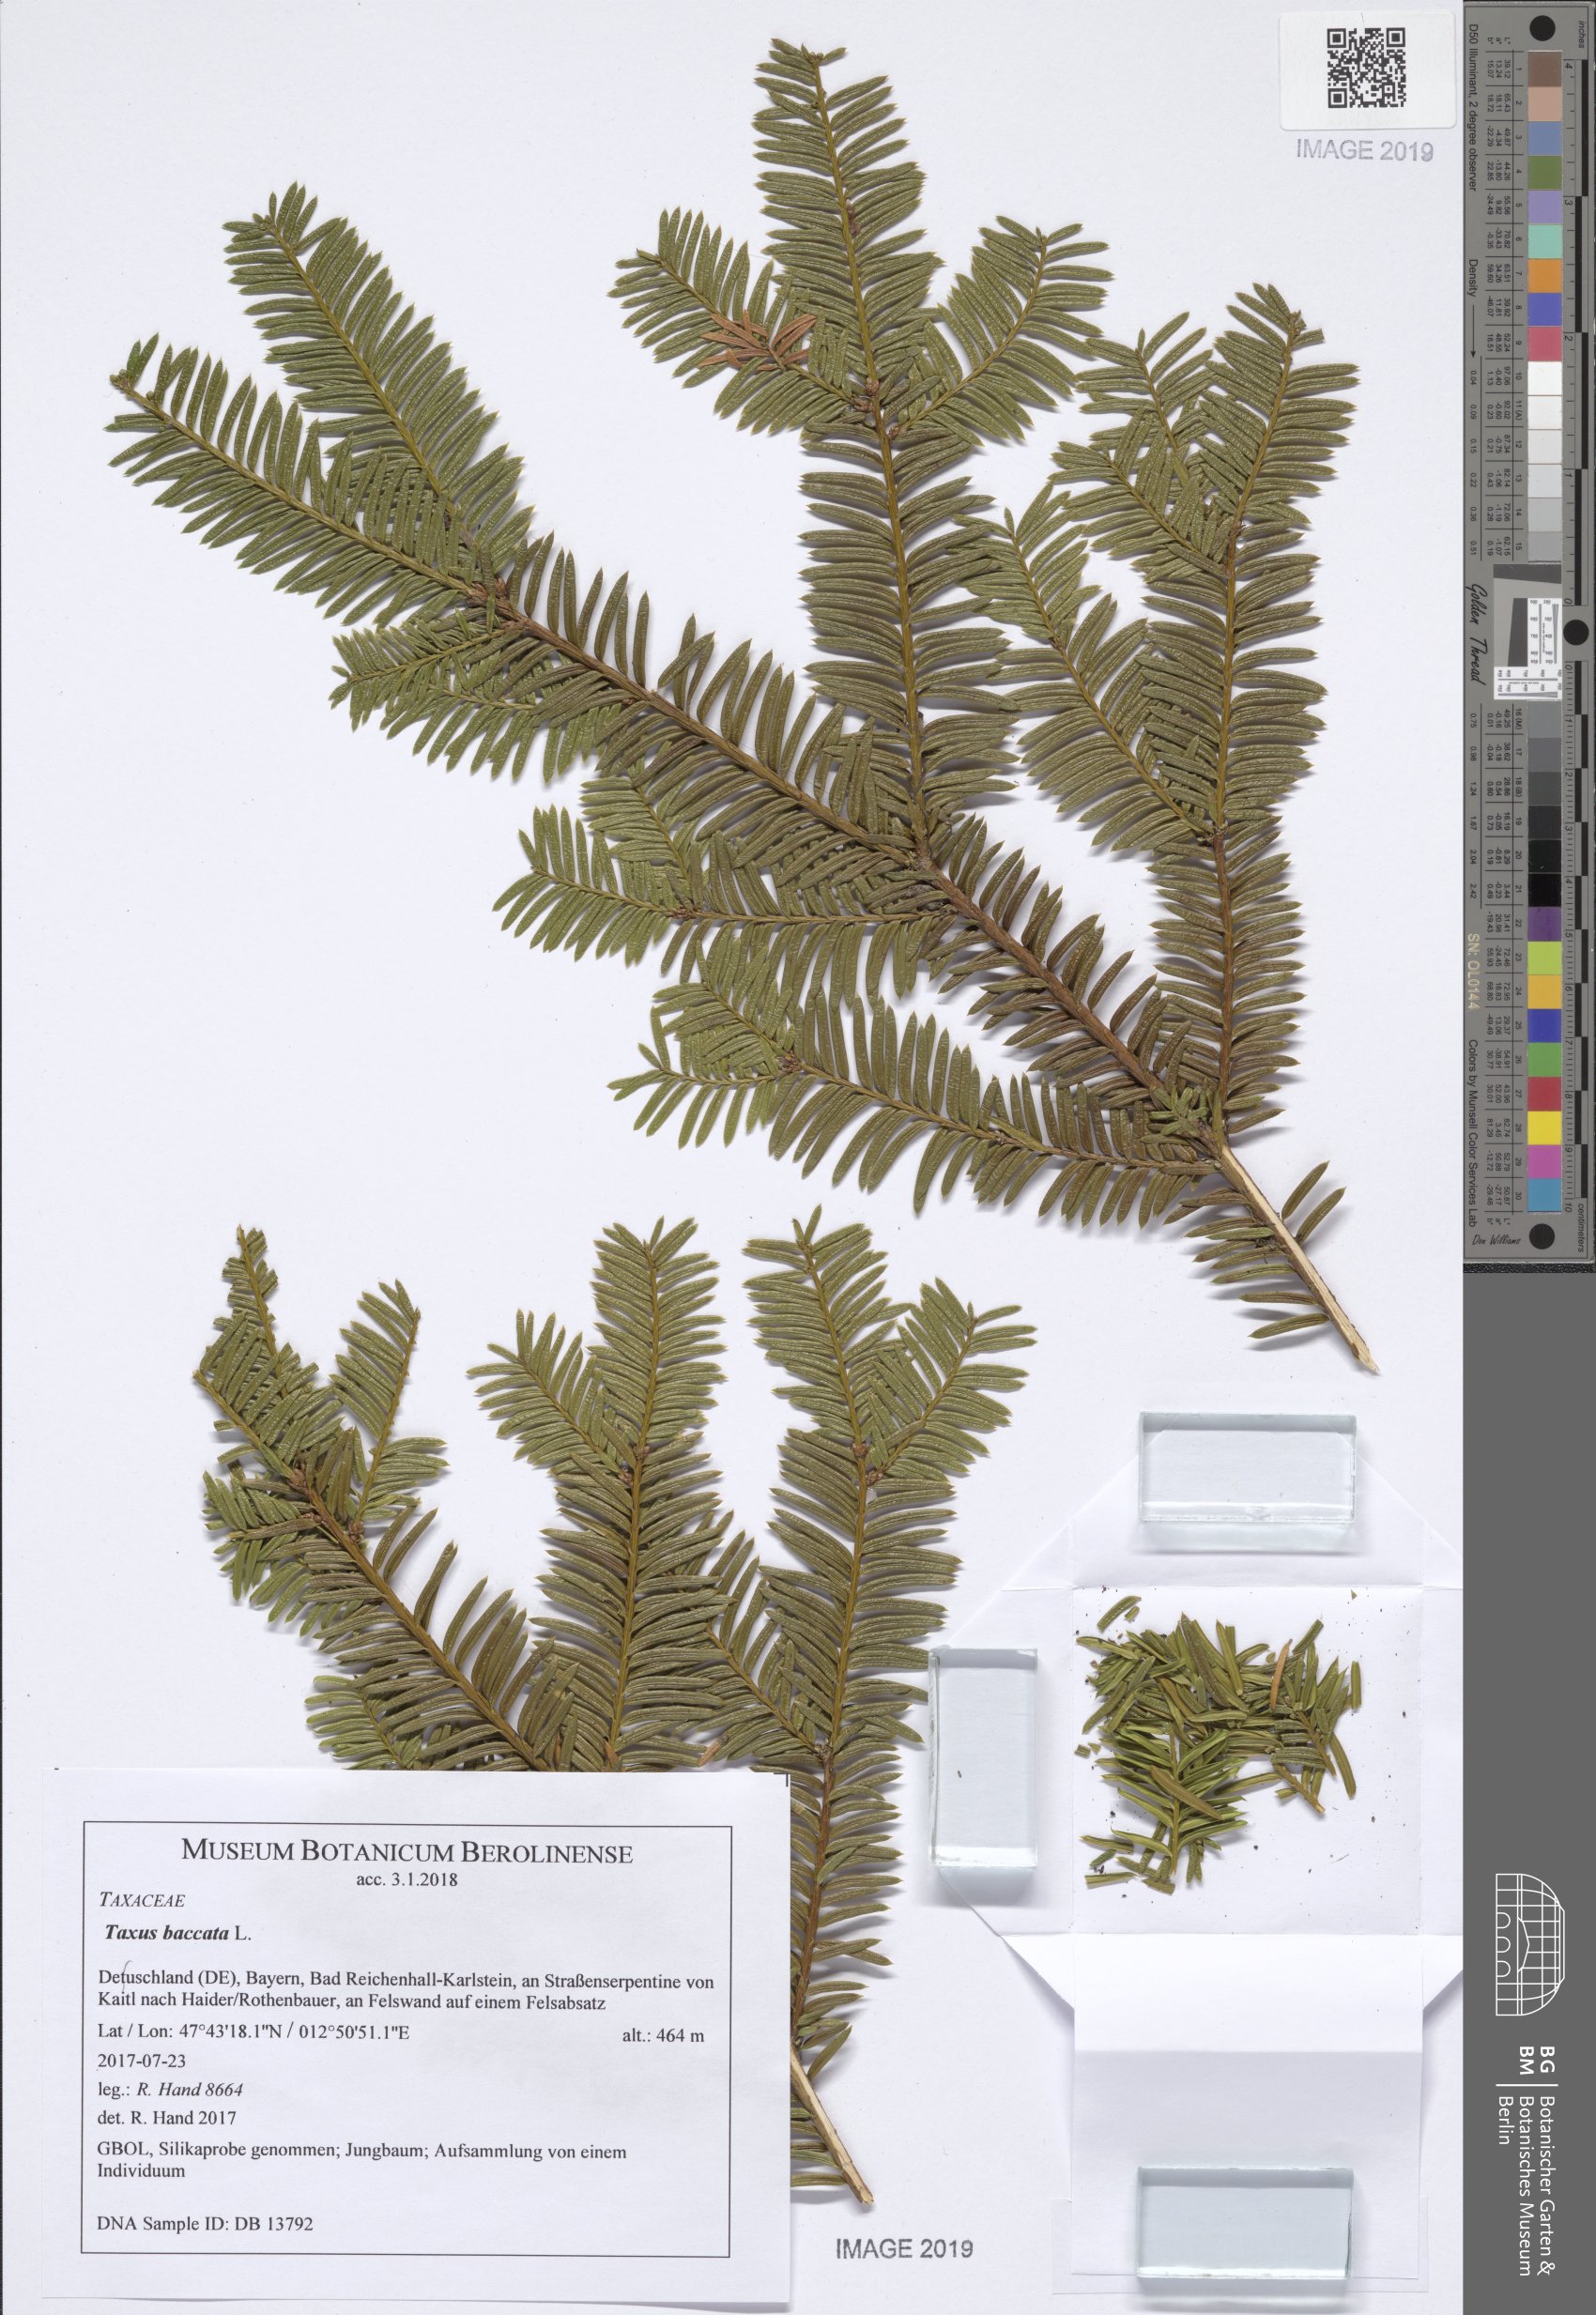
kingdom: Plantae
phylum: Tracheophyta
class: Pinopsida
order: Pinales
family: Taxaceae
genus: Taxus
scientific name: Taxus baccata
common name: Yew
